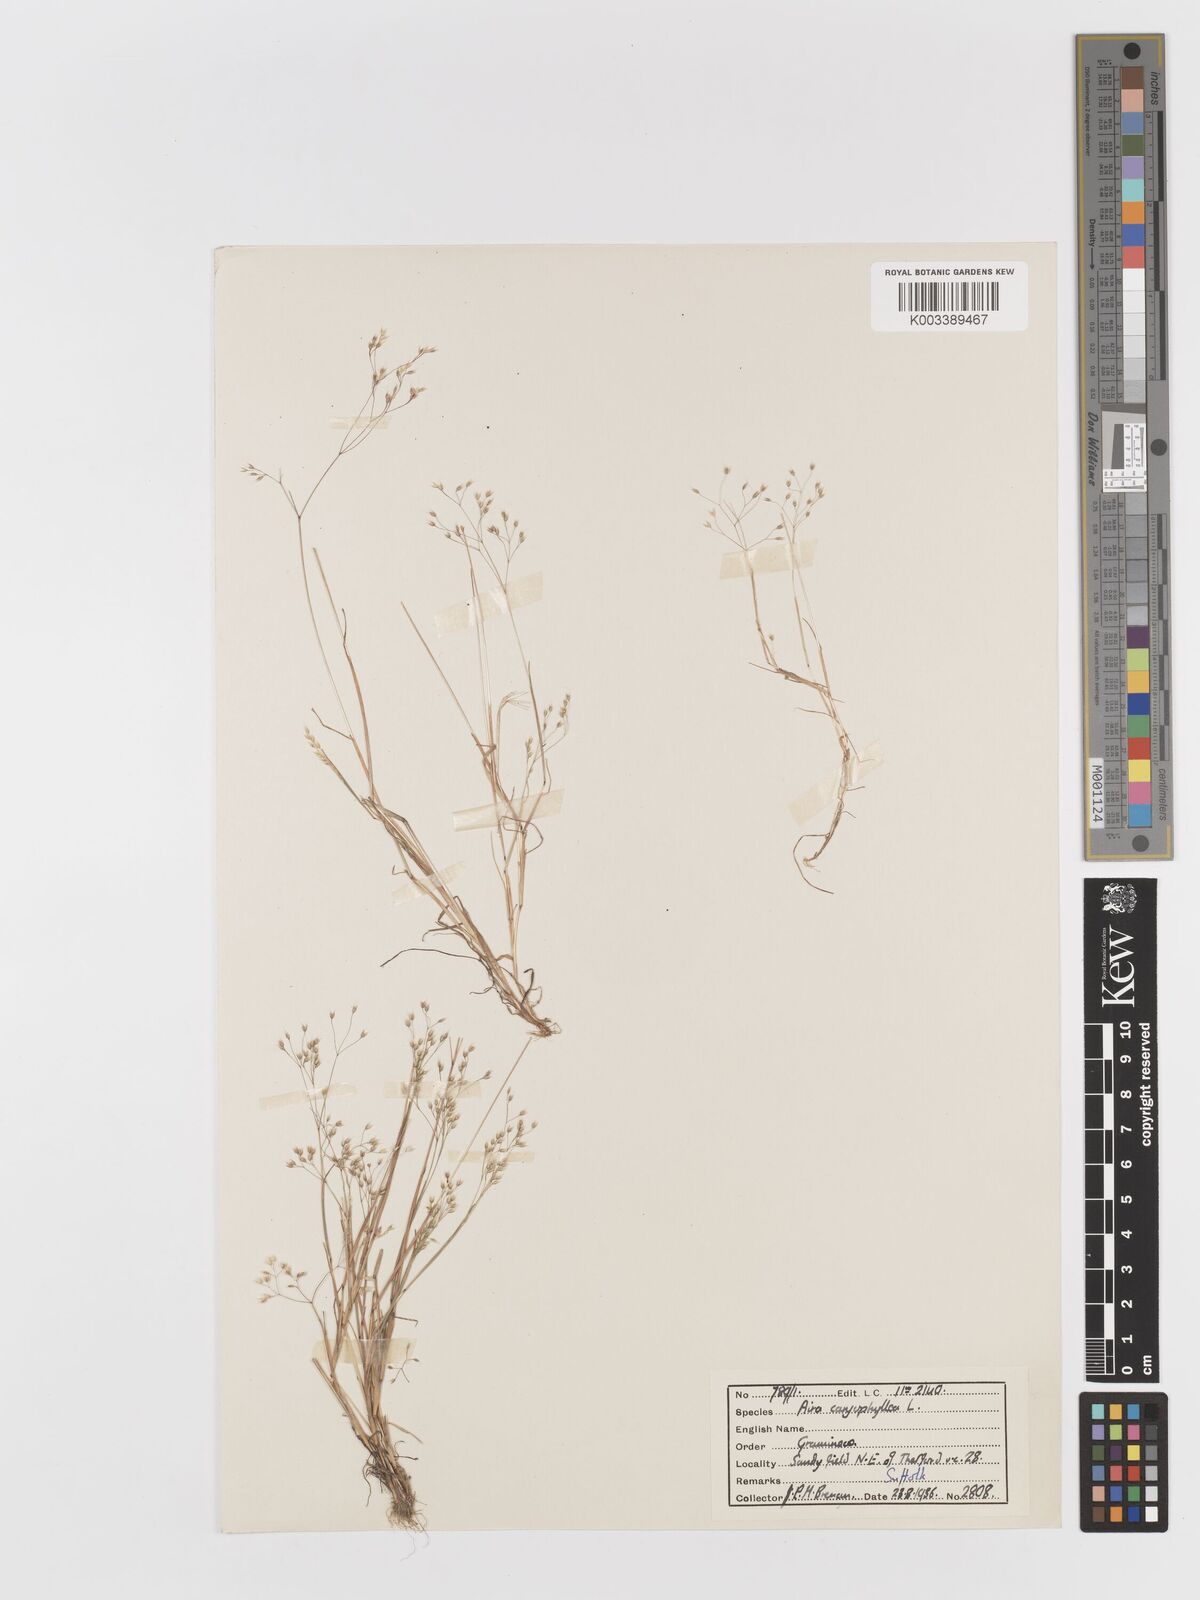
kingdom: Plantae
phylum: Tracheophyta
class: Liliopsida
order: Poales
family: Poaceae
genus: Aira
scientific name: Aira caryophyllea
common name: Silver hairgrass
